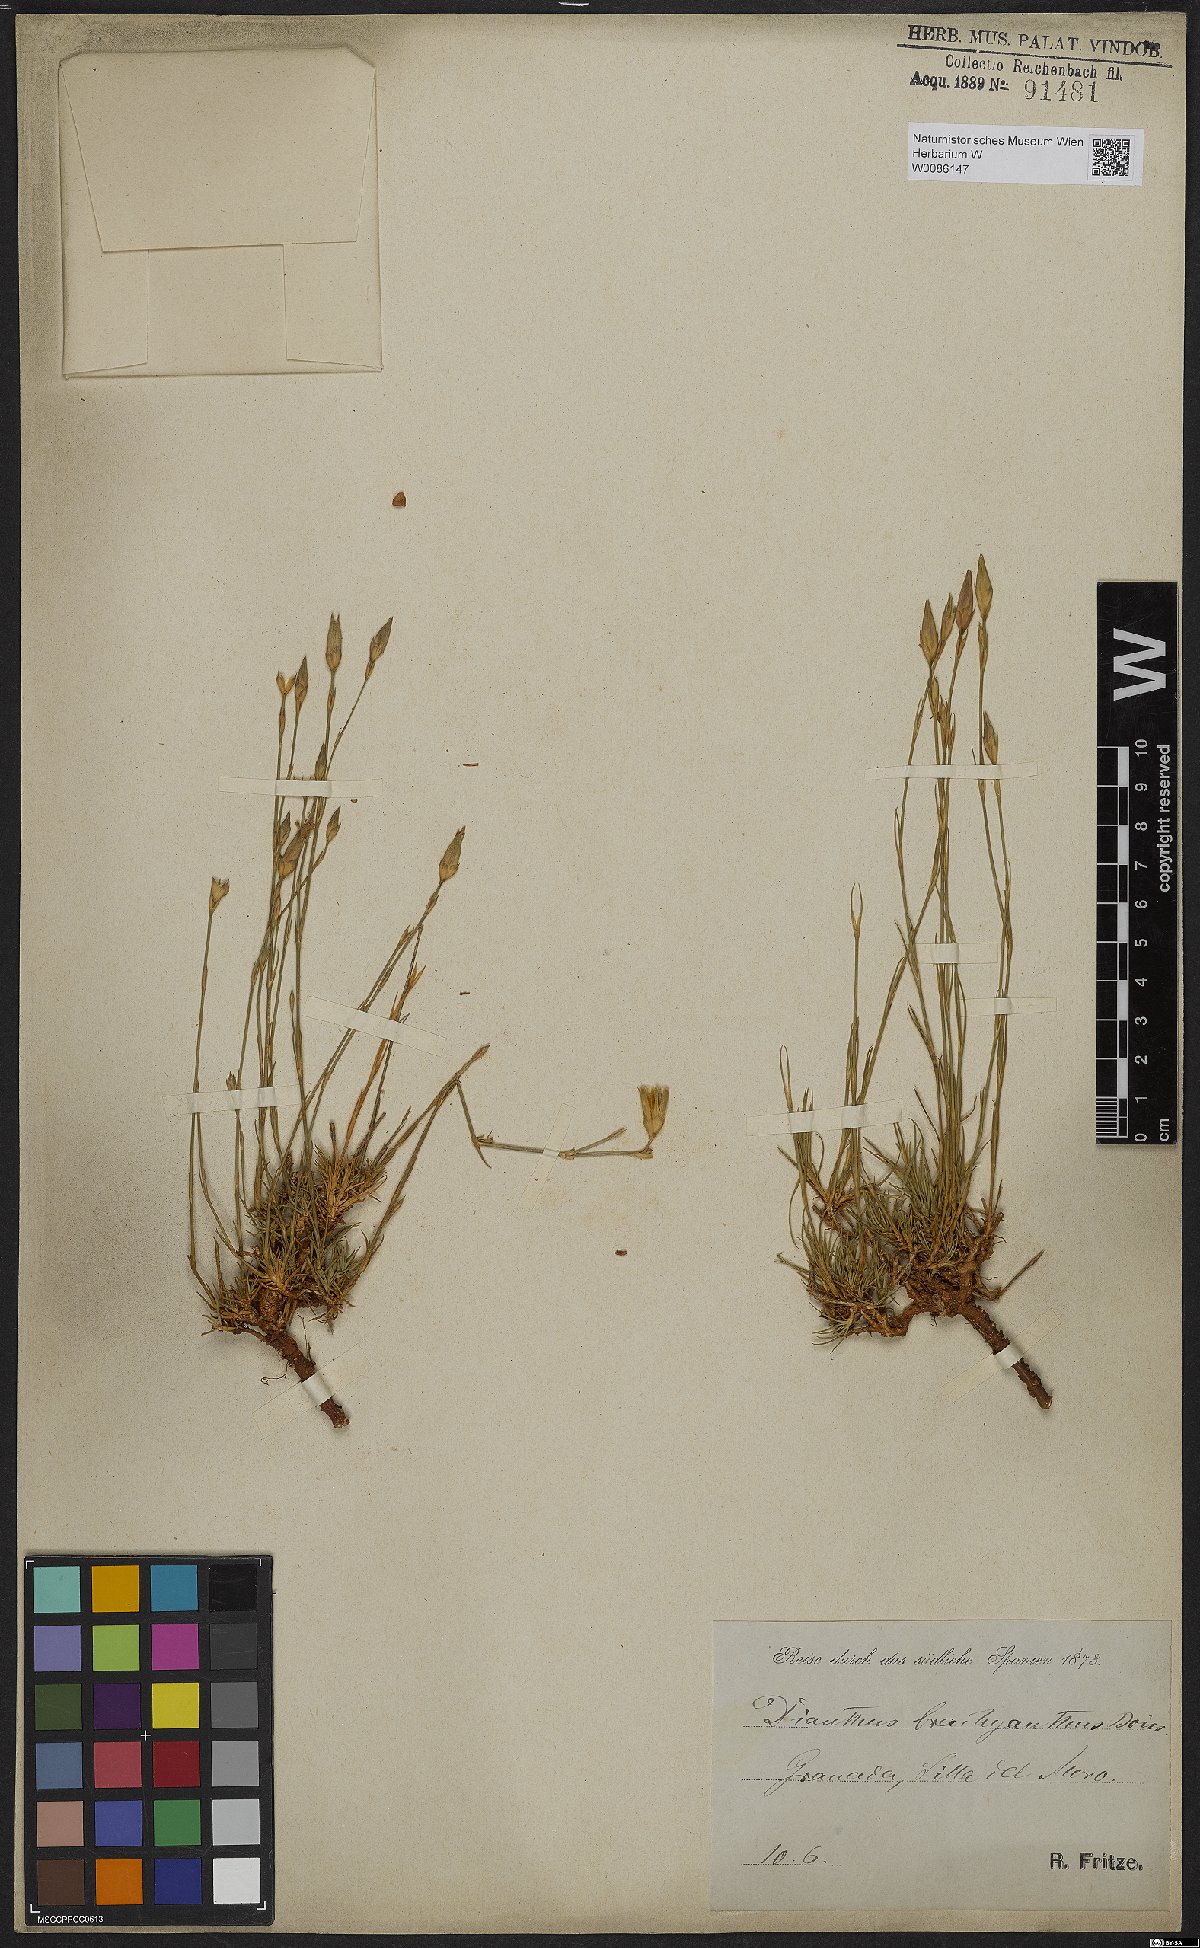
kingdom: Plantae
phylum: Tracheophyta
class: Magnoliopsida
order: Caryophyllales
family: Caryophyllaceae
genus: Dianthus
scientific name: Dianthus pungens
